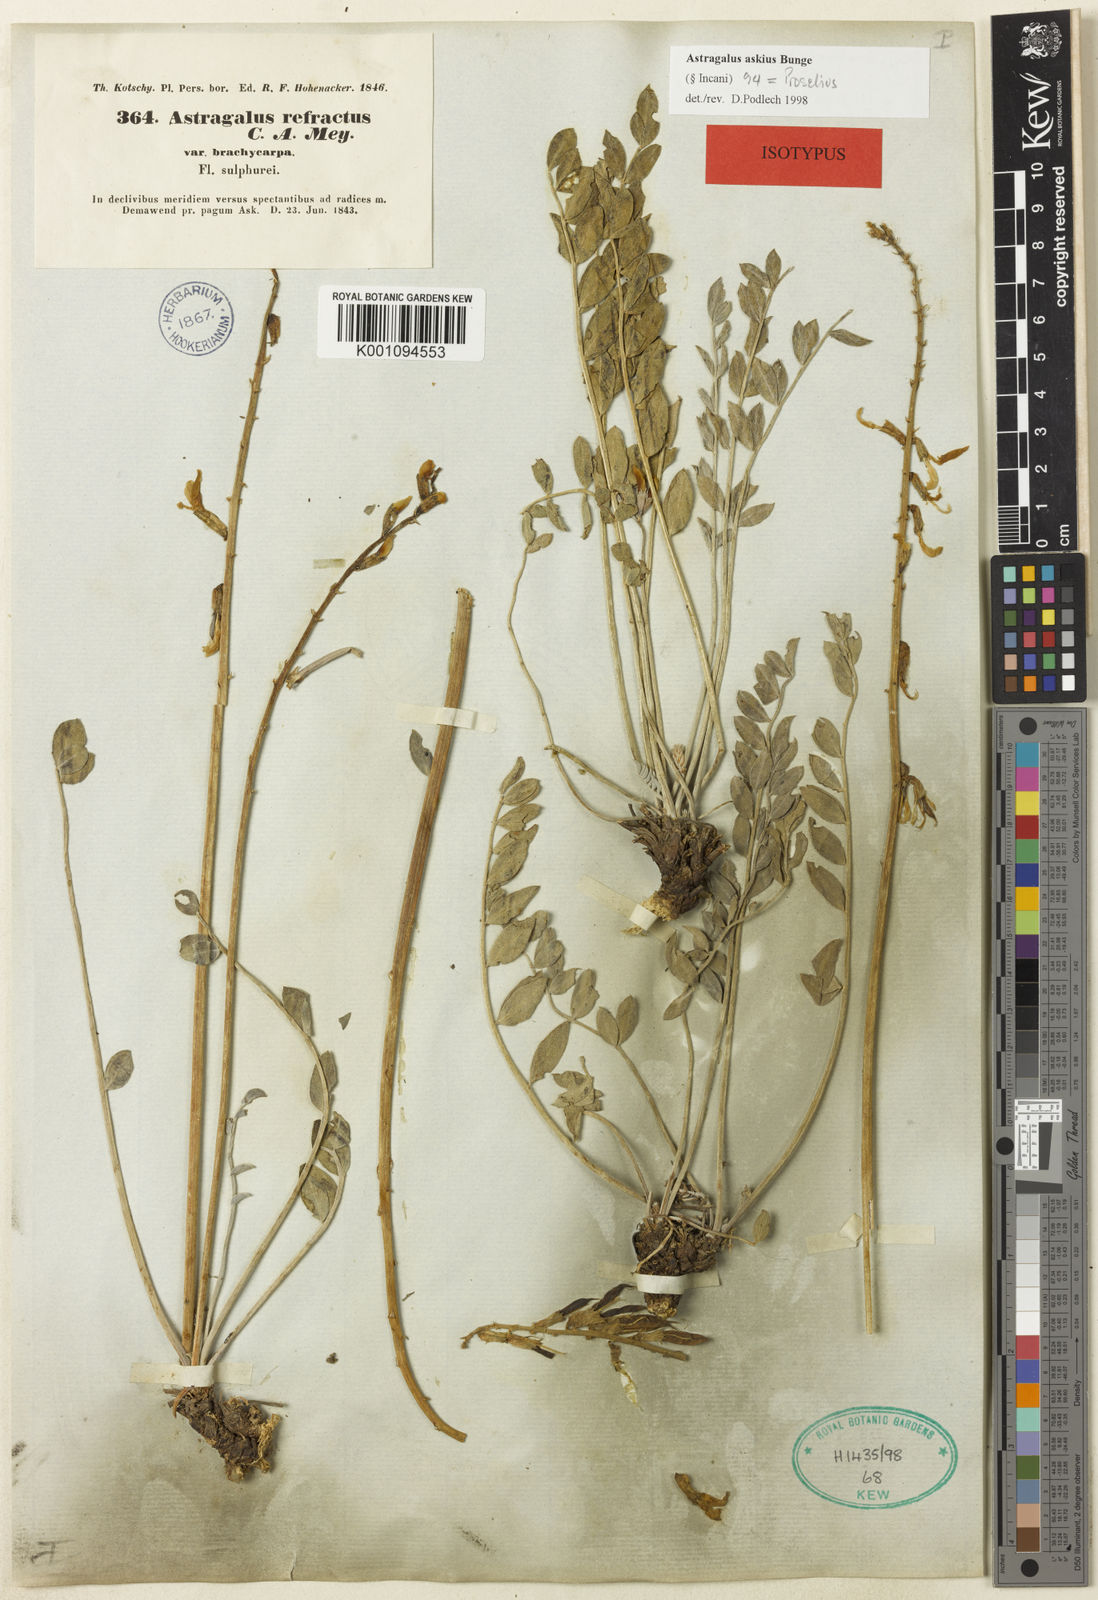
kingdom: Plantae
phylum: Tracheophyta
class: Magnoliopsida
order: Fabales
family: Fabaceae
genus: Astragalus
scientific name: Astragalus
